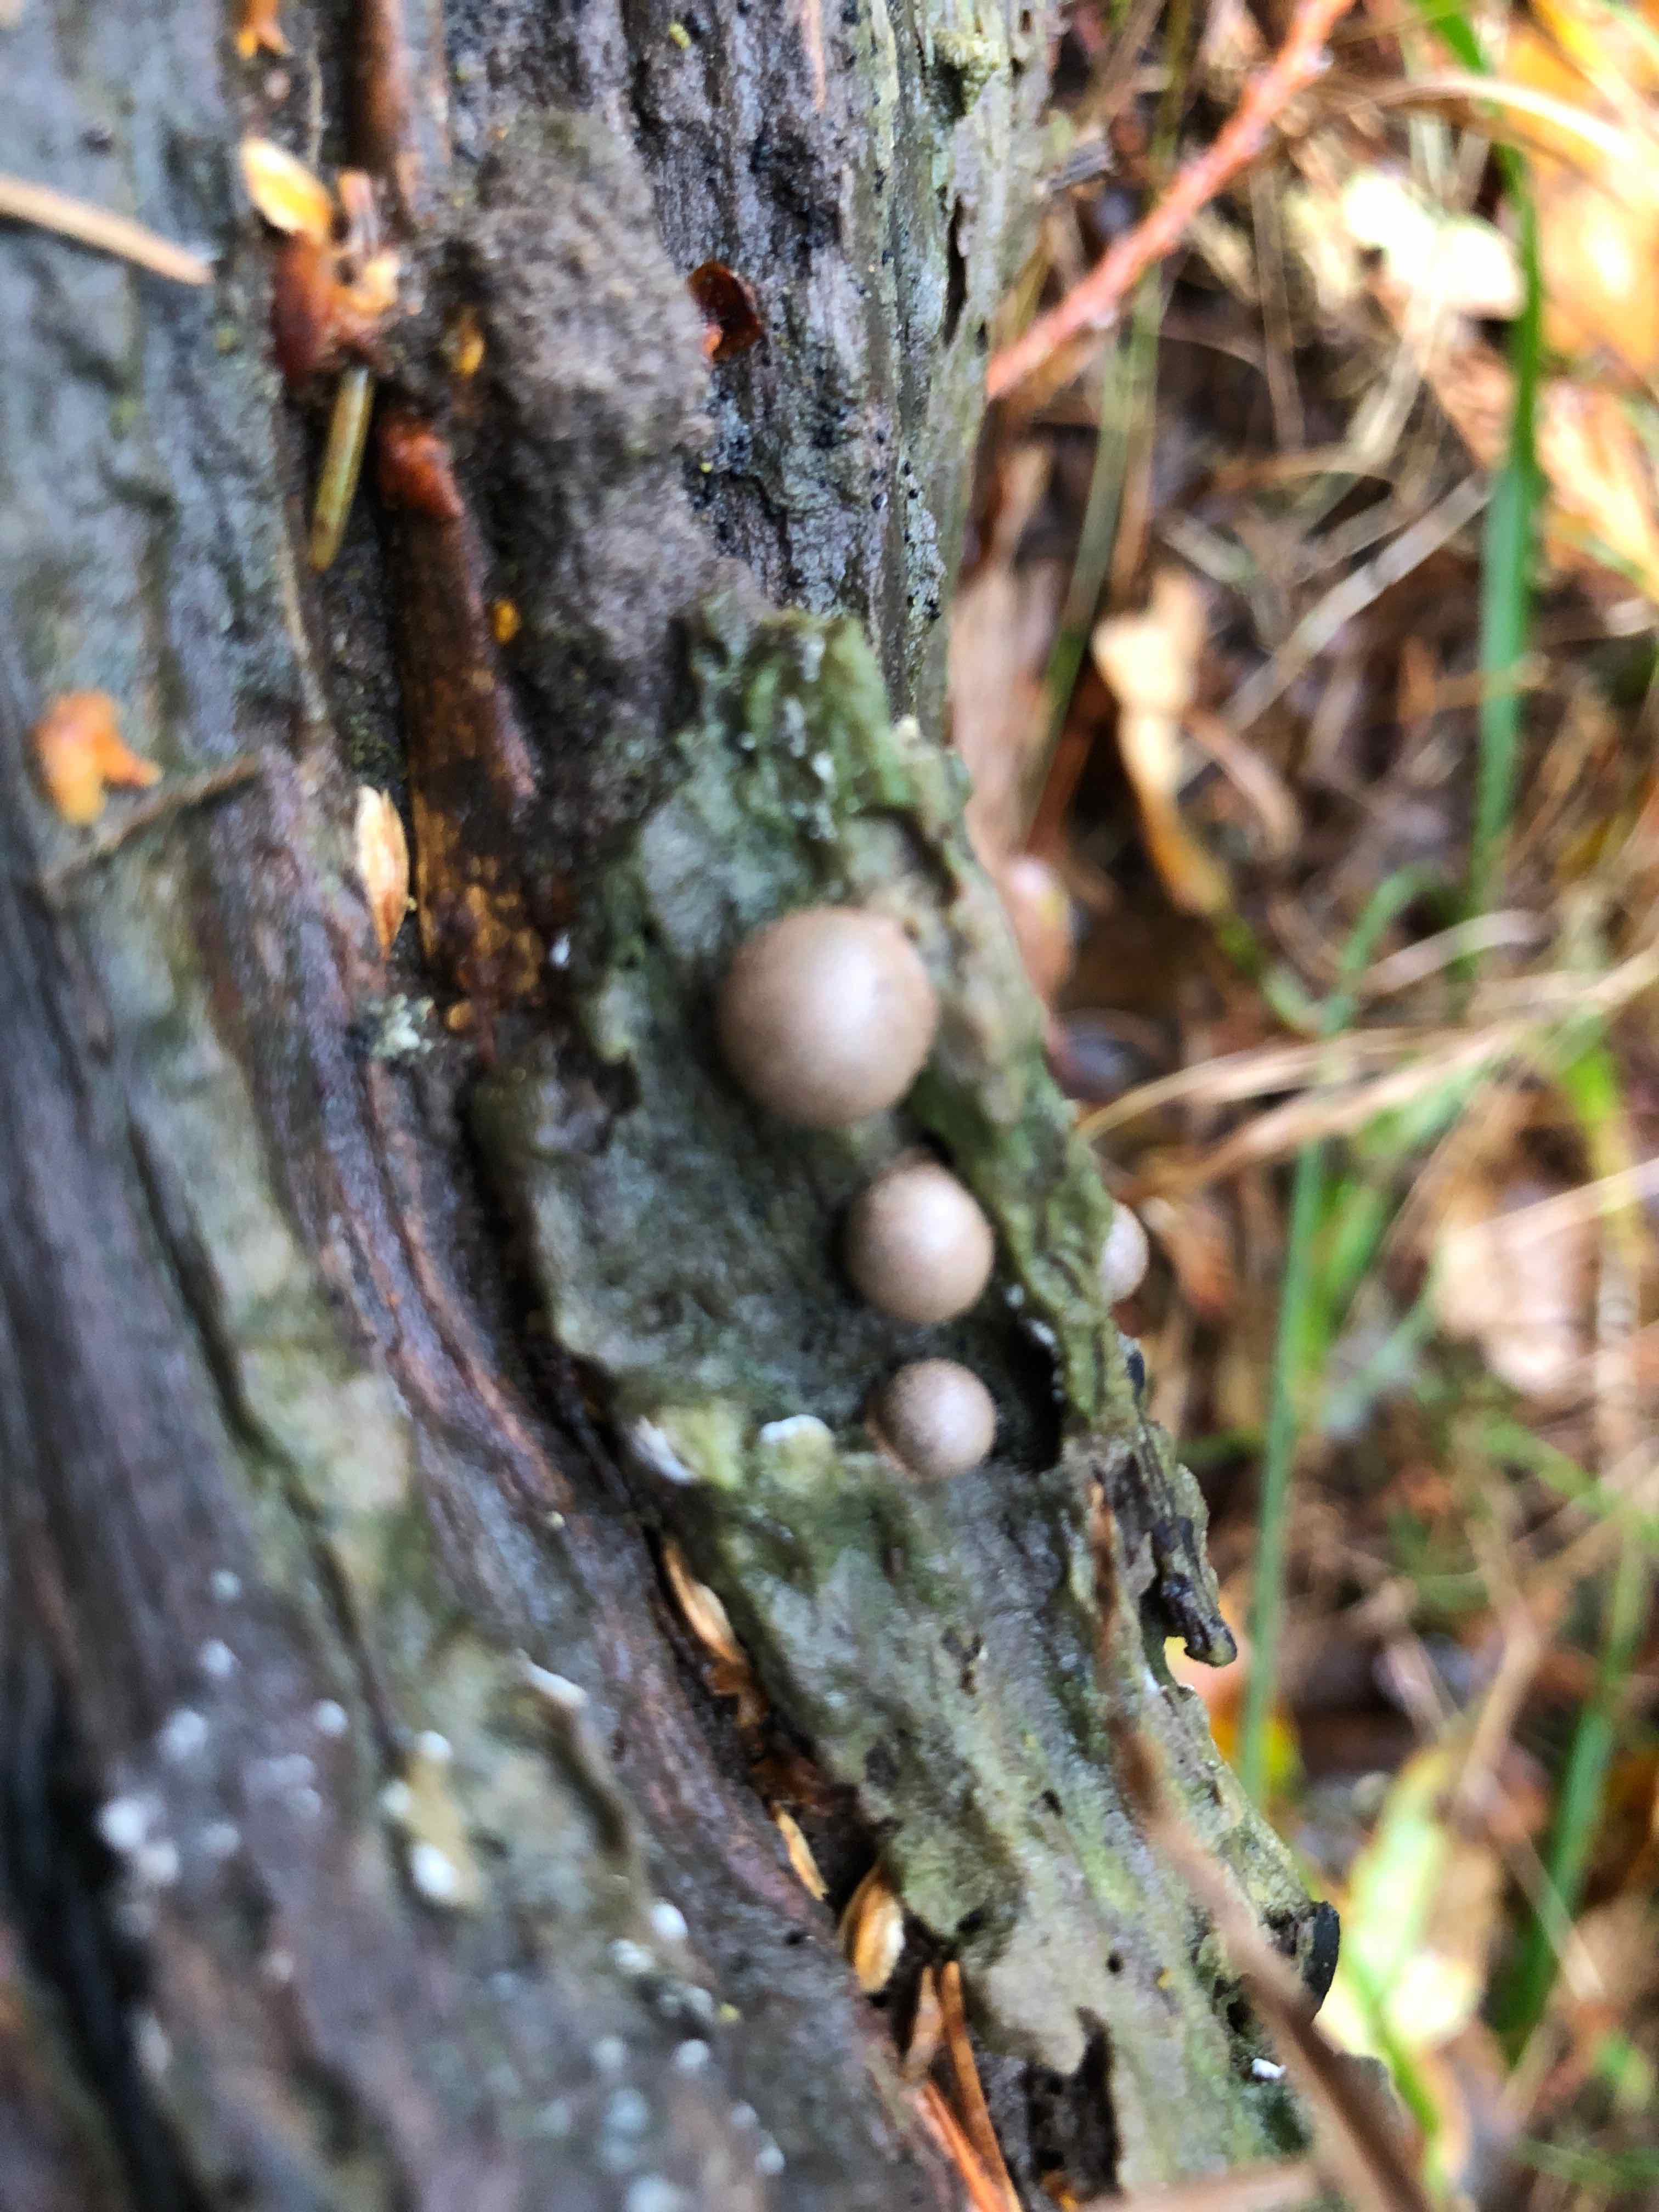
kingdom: Protozoa
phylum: Mycetozoa
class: Myxomycetes
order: Cribrariales
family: Tubiferaceae
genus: Lycogala
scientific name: Lycogala epidendrum
